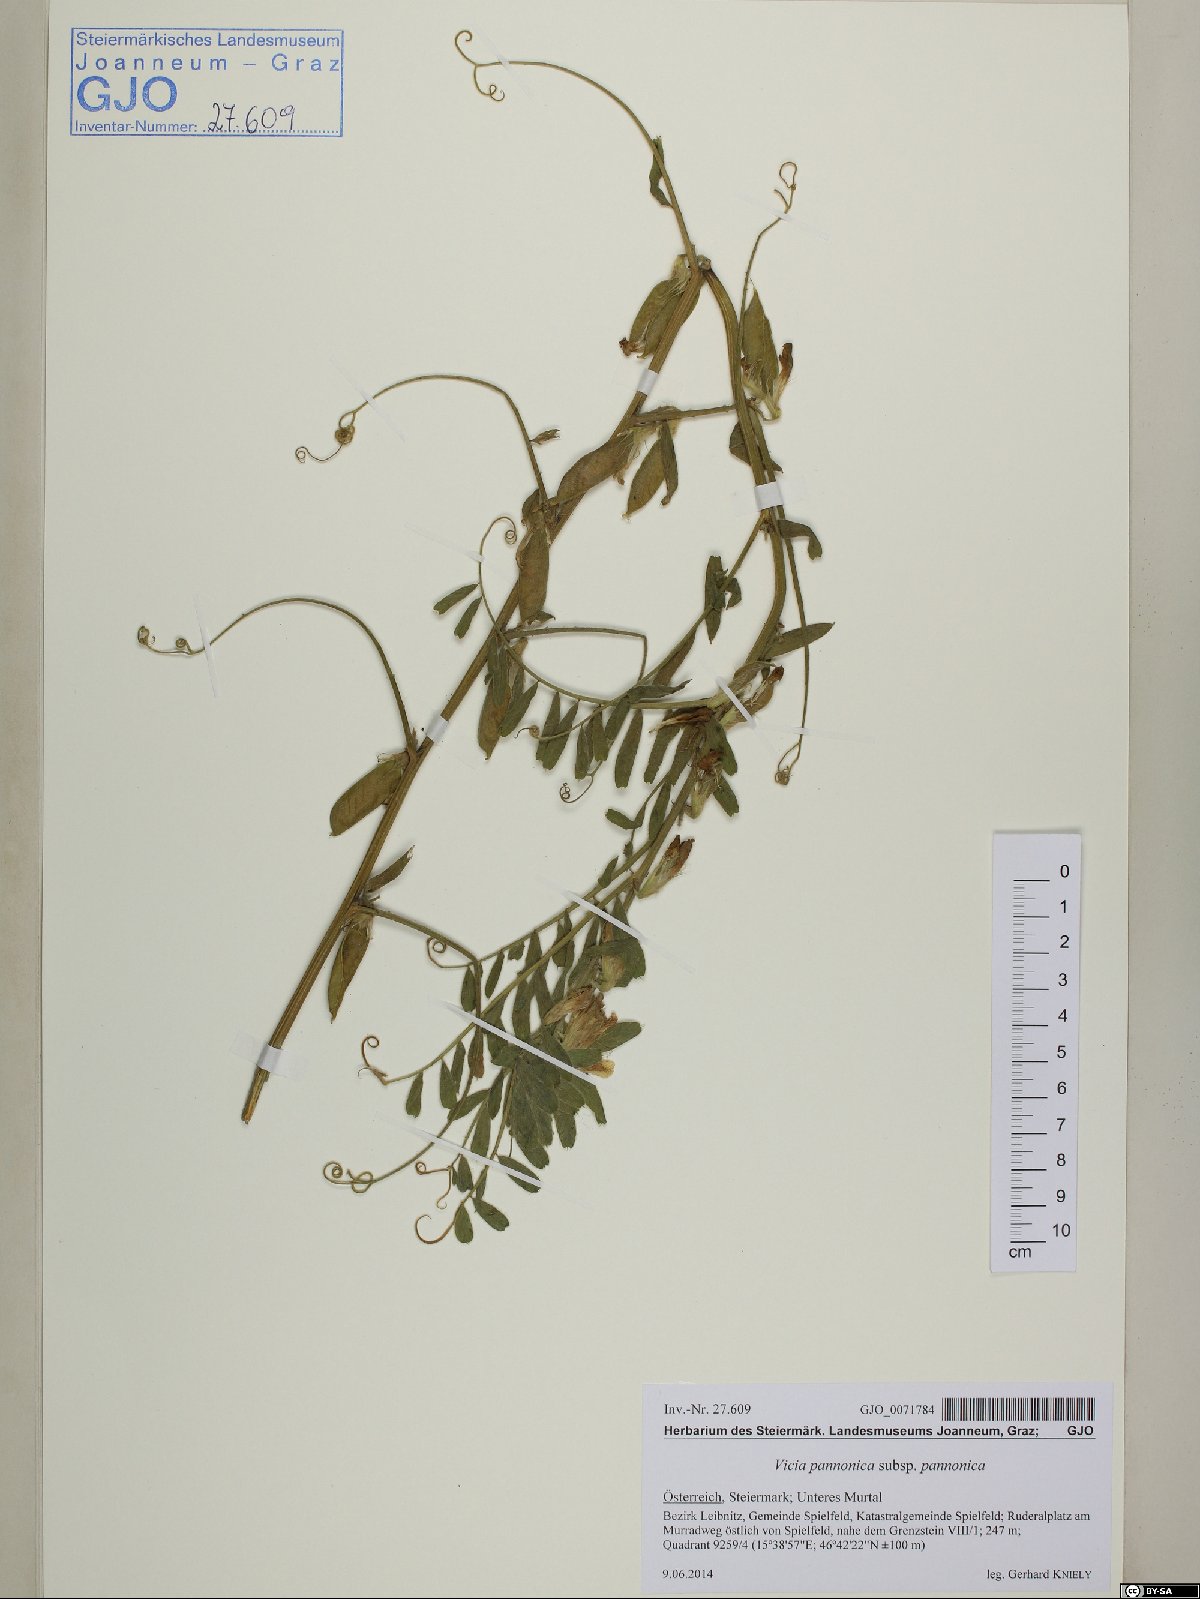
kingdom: Plantae
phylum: Tracheophyta
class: Magnoliopsida
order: Fabales
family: Fabaceae
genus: Vicia
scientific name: Vicia pannonica
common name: Hungarian vetch
